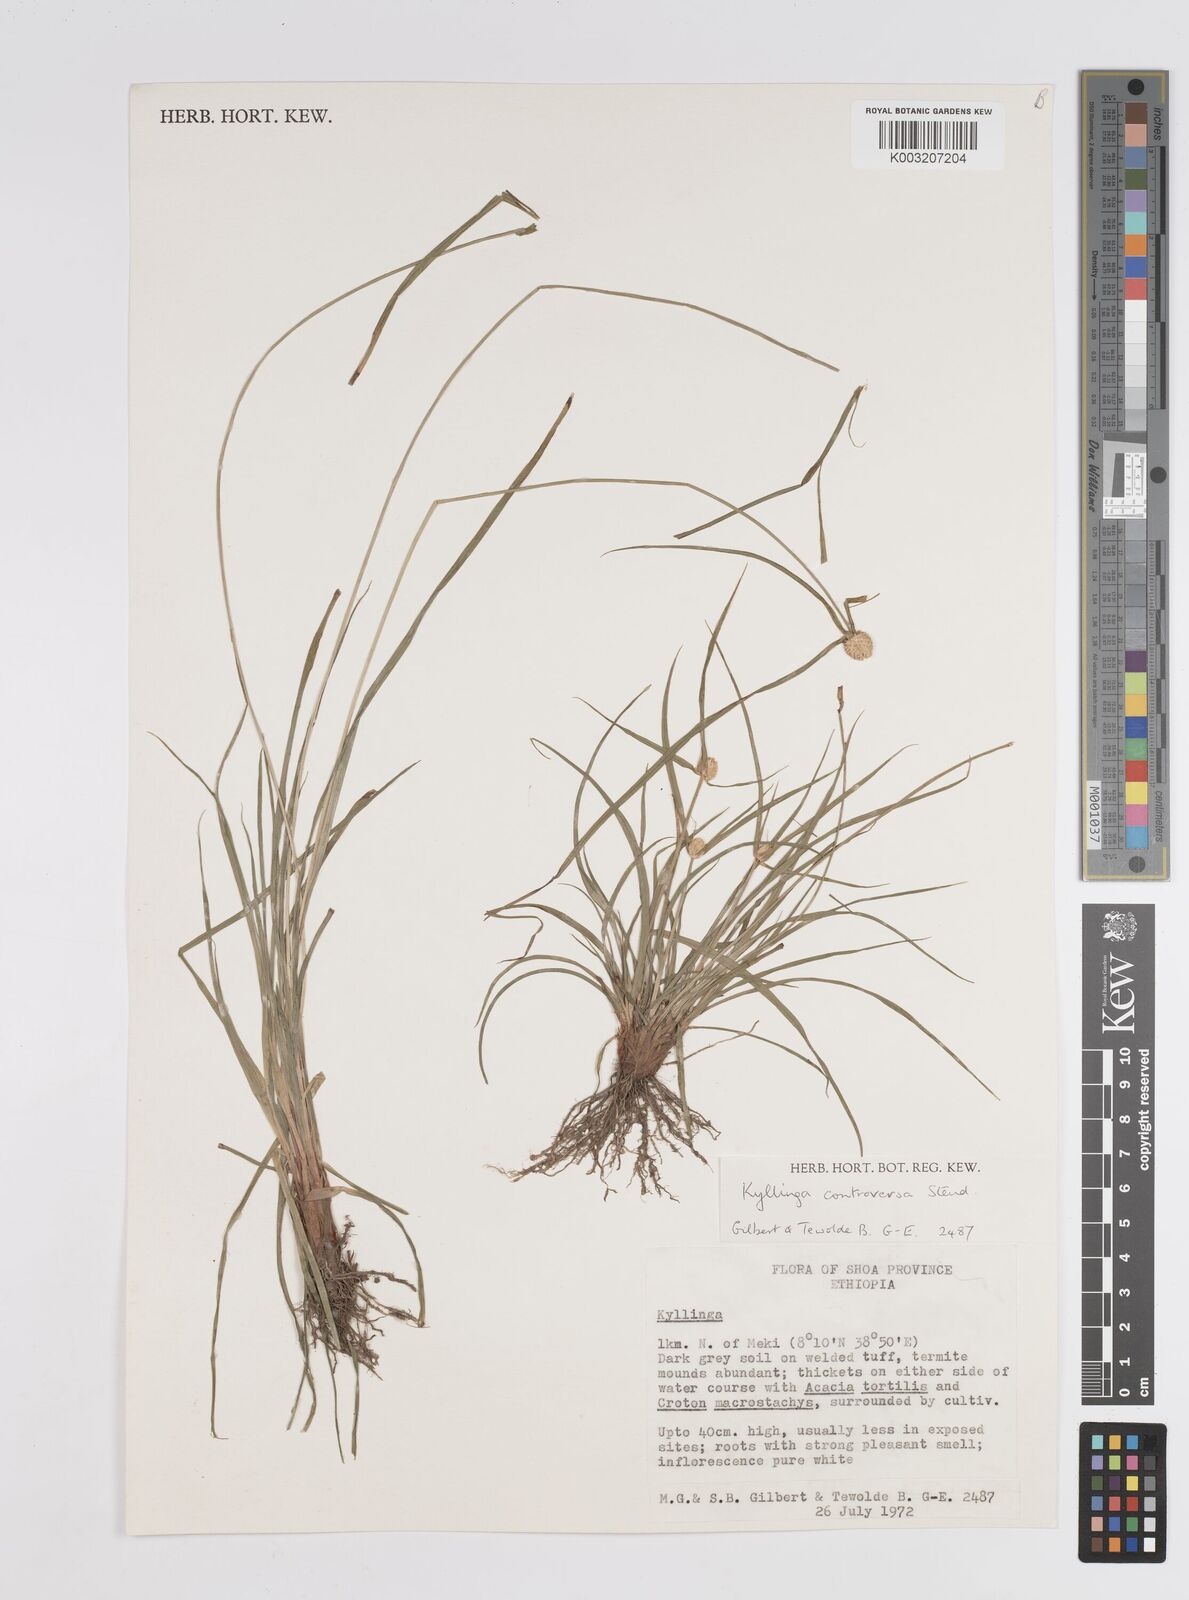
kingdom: Plantae
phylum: Tracheophyta
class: Liliopsida
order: Poales
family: Cyperaceae
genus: Cyperus
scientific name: Cyperus controversus
